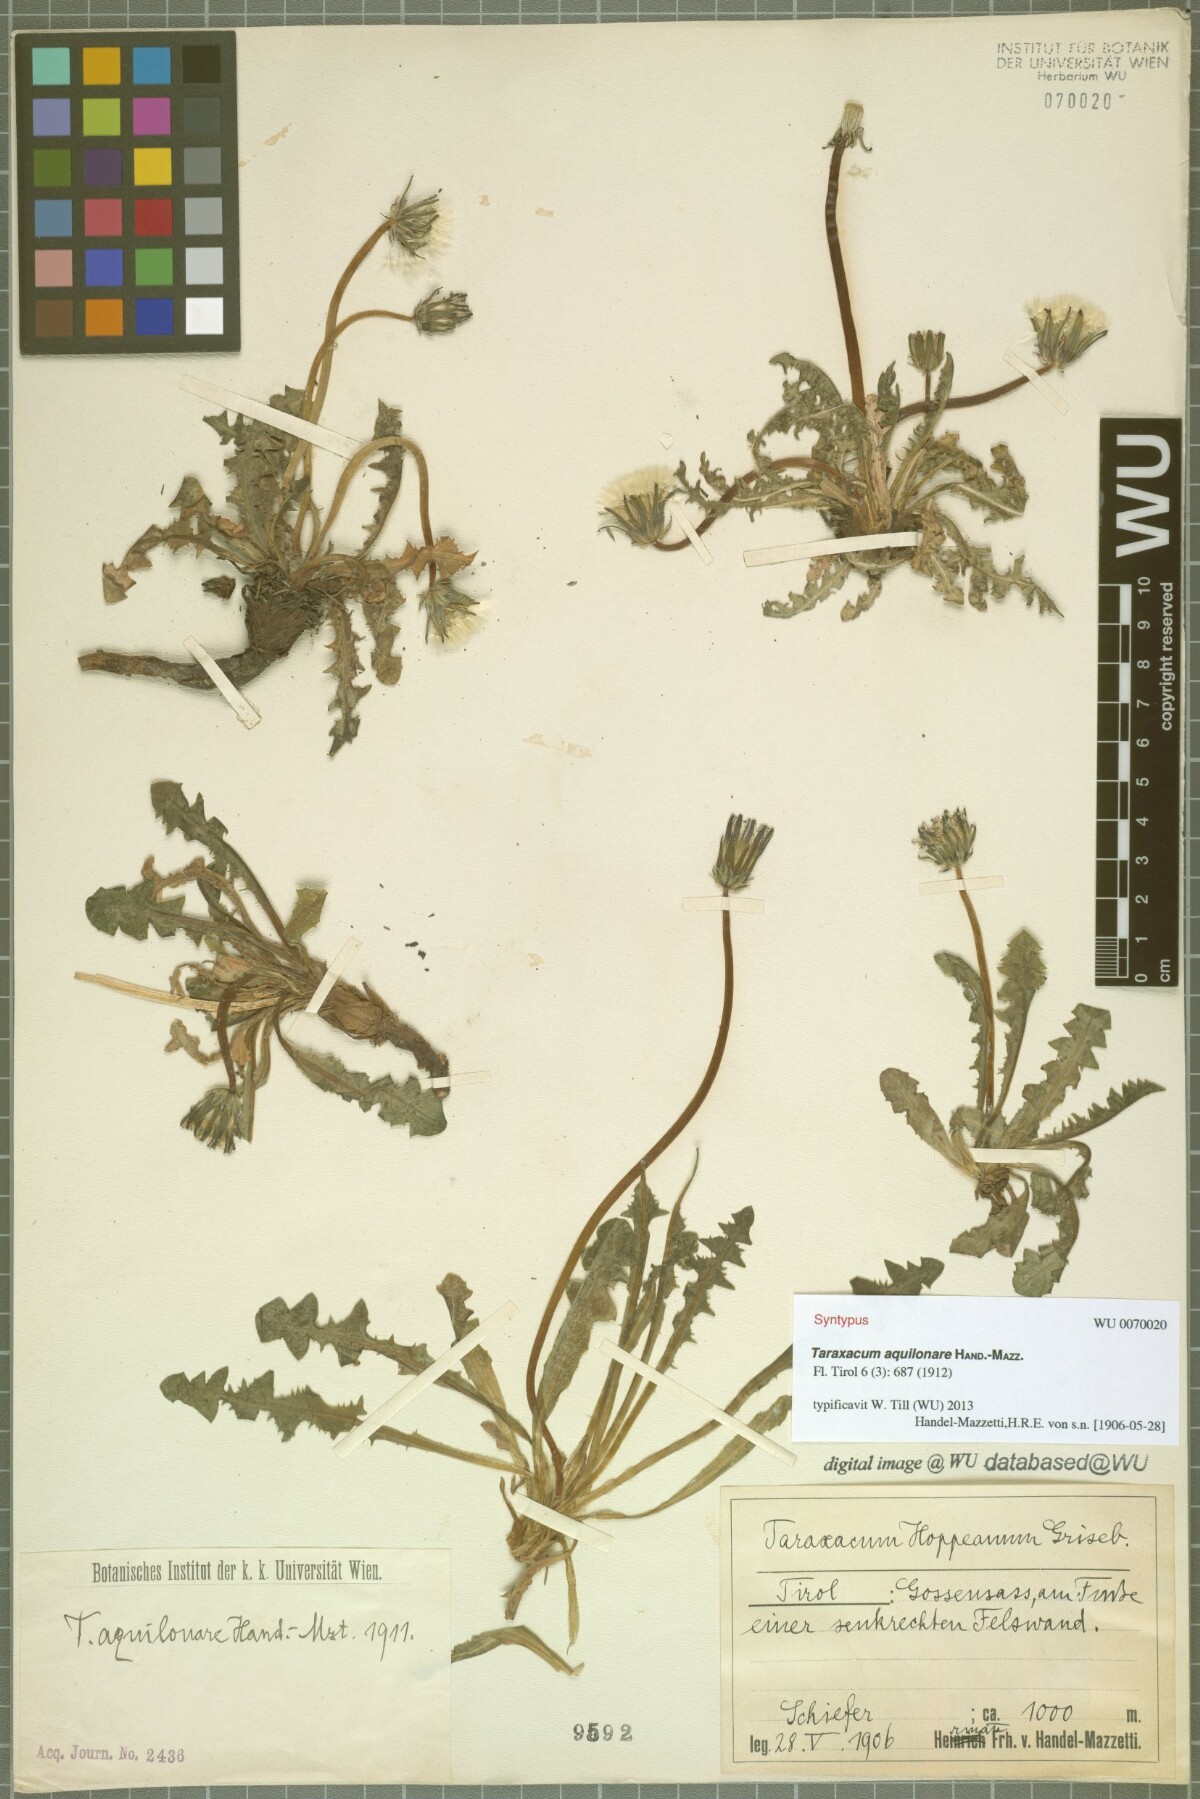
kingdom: Plantae
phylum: Tracheophyta
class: Magnoliopsida
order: Asterales
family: Asteraceae
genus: Taraxacum
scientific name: Taraxacum aquilonare
